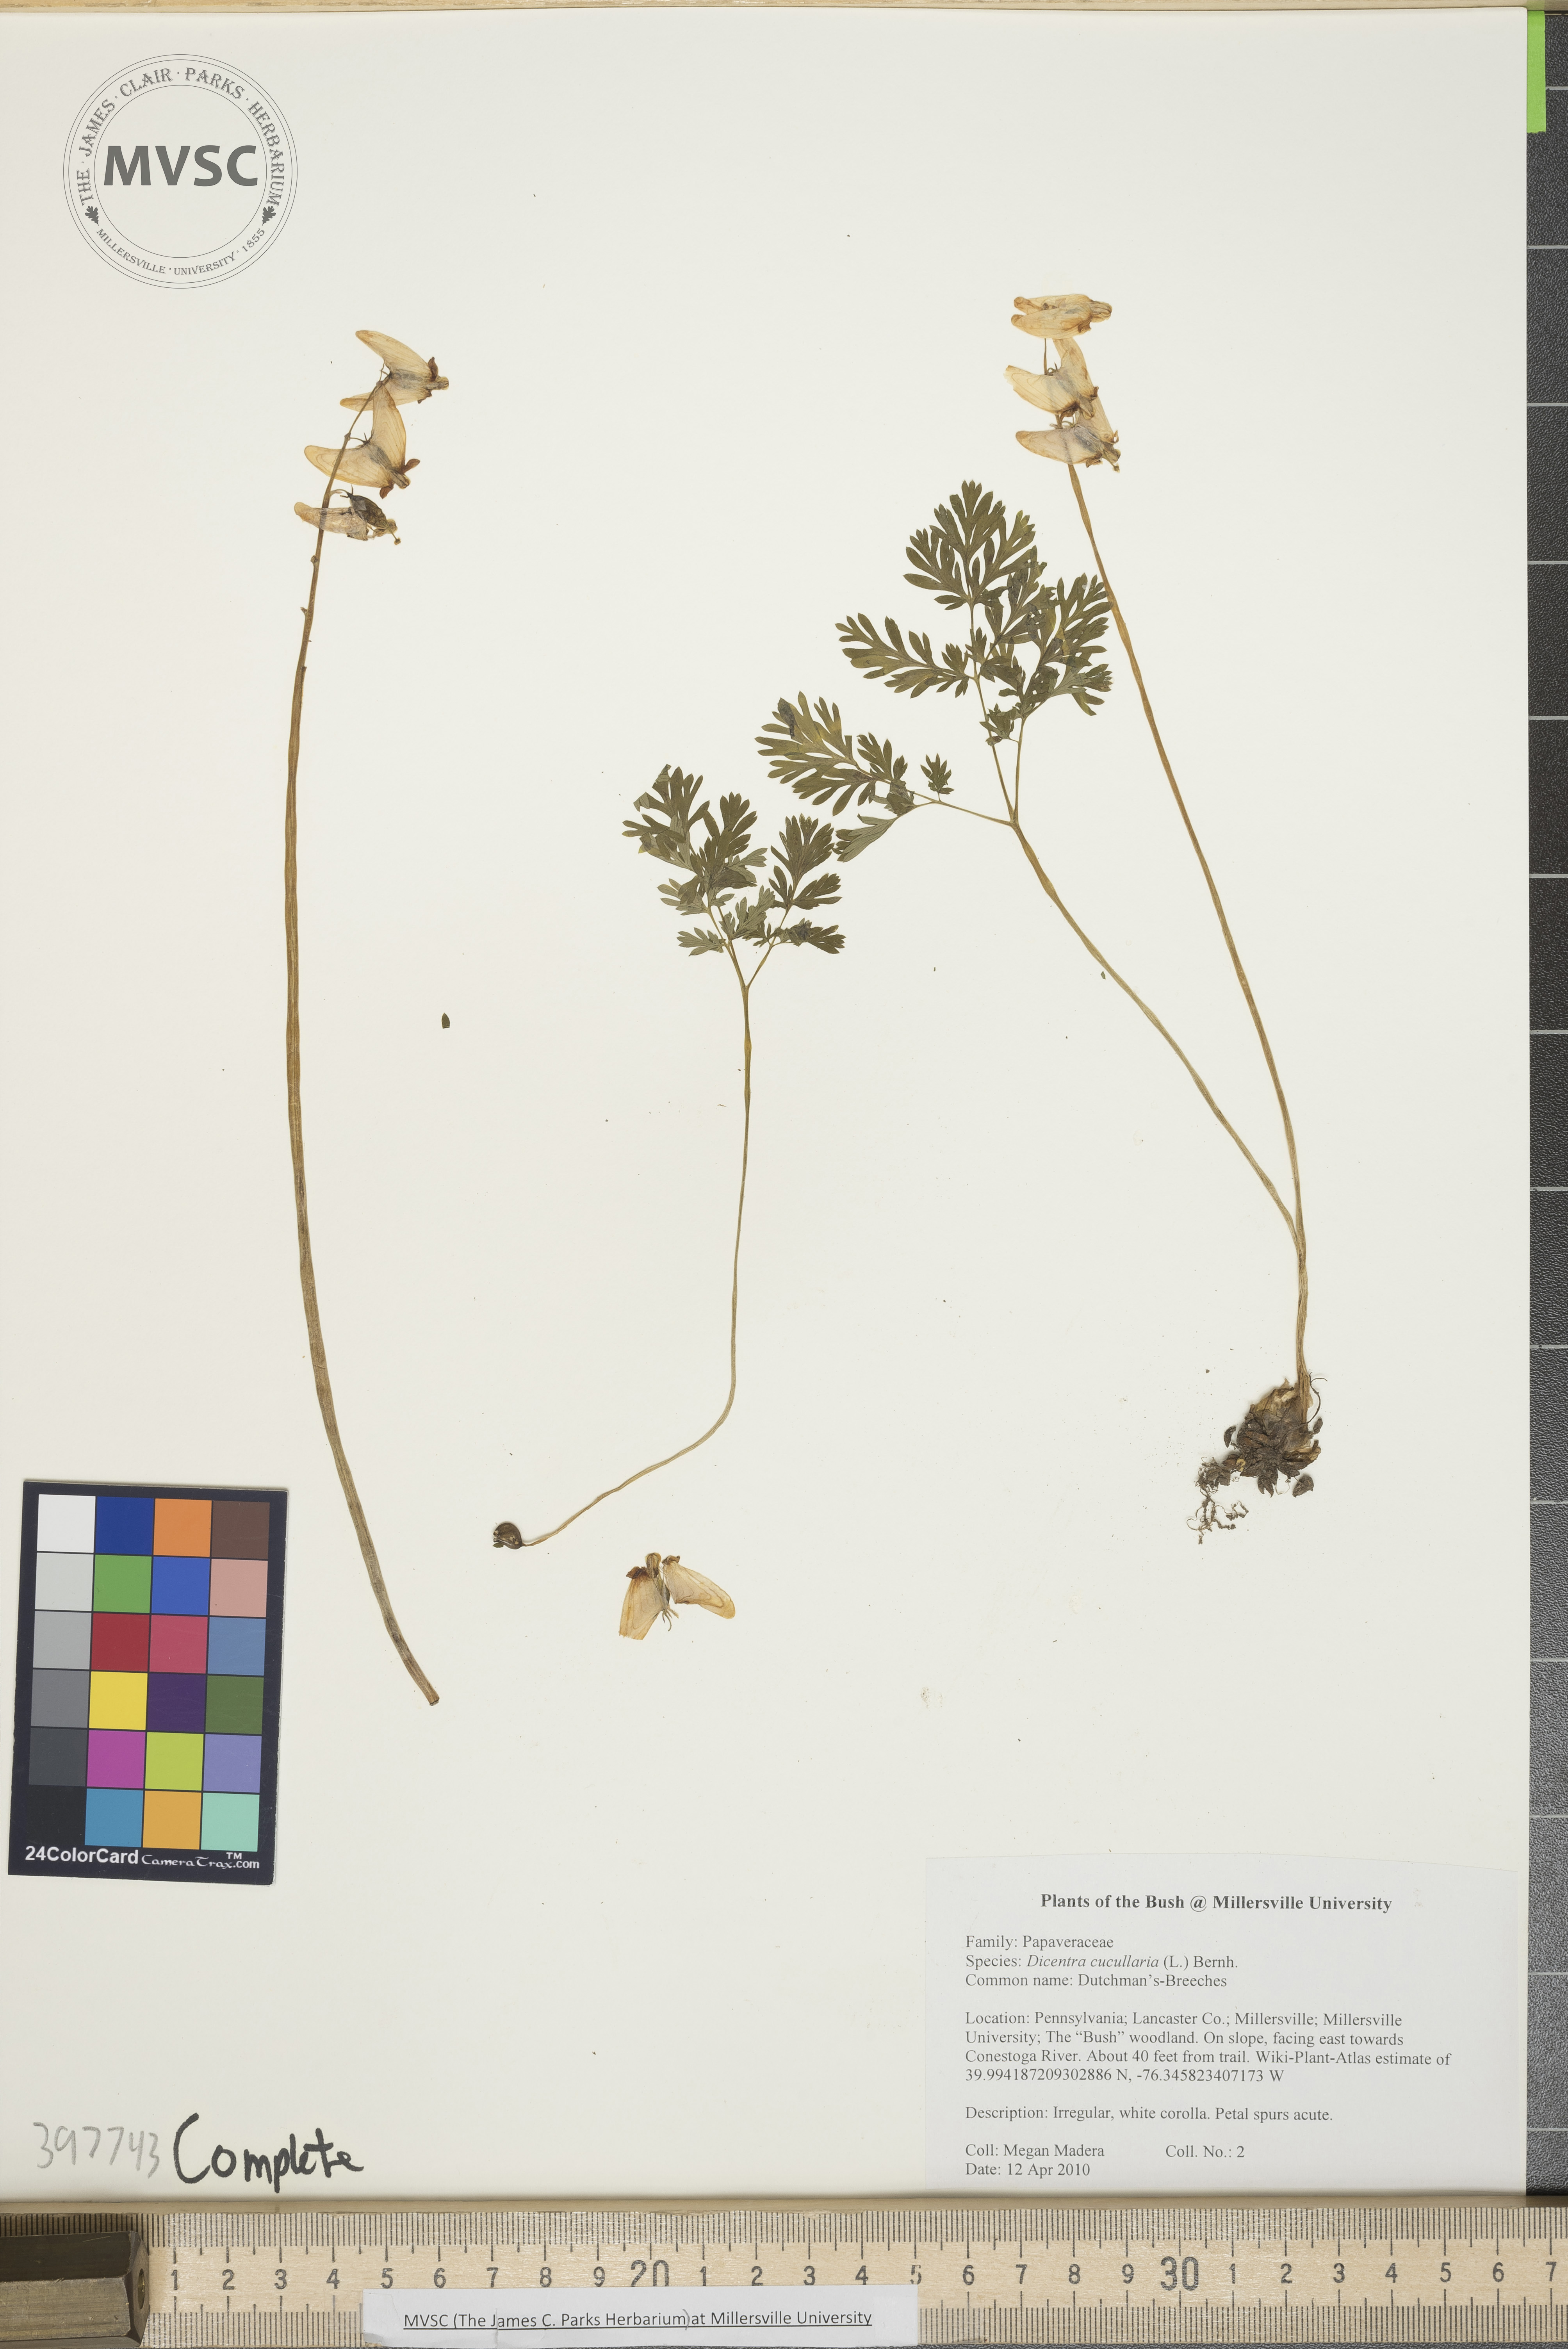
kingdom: Plantae
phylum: Tracheophyta
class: Magnoliopsida
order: Ranunculales
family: Papaveraceae
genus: Dicentra
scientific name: Dicentra cucullaria
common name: Dutchman's-breeches
